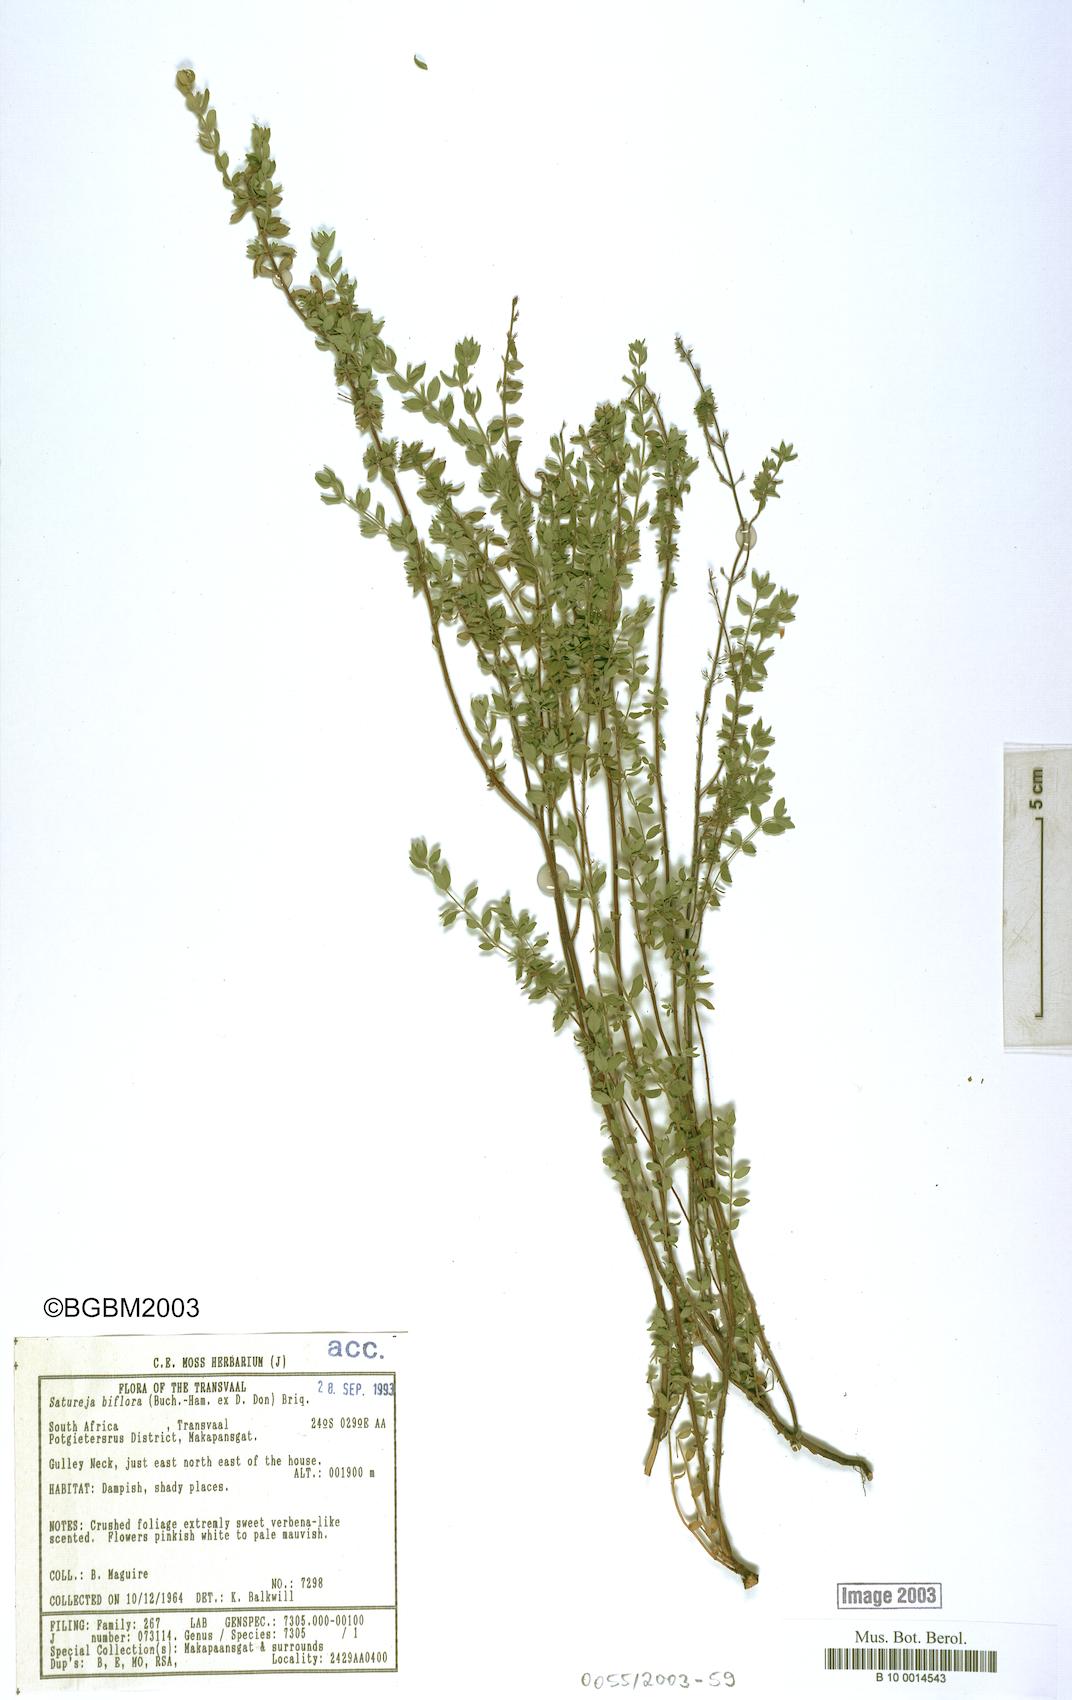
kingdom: Plantae
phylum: Tracheophyta
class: Magnoliopsida
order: Lamiales
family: Lamiaceae
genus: Micromeria
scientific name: Micromeria biflora
